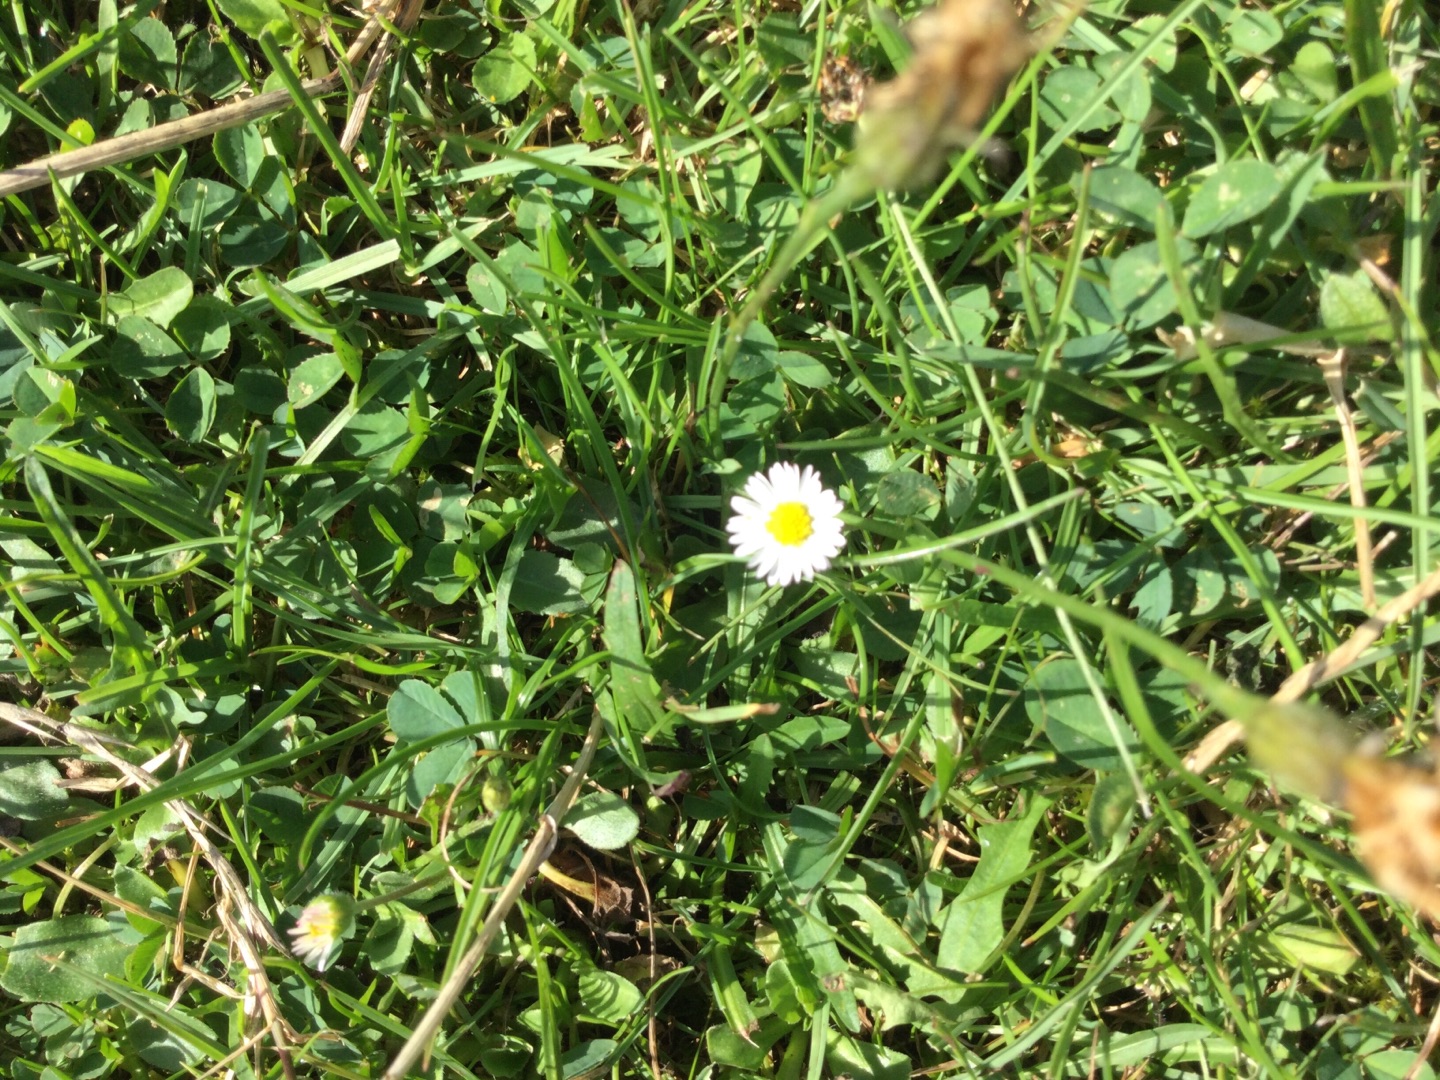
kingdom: Plantae
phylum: Tracheophyta
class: Magnoliopsida
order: Asterales
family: Asteraceae
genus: Bellis
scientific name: Bellis perennis
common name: Tusindfryd
